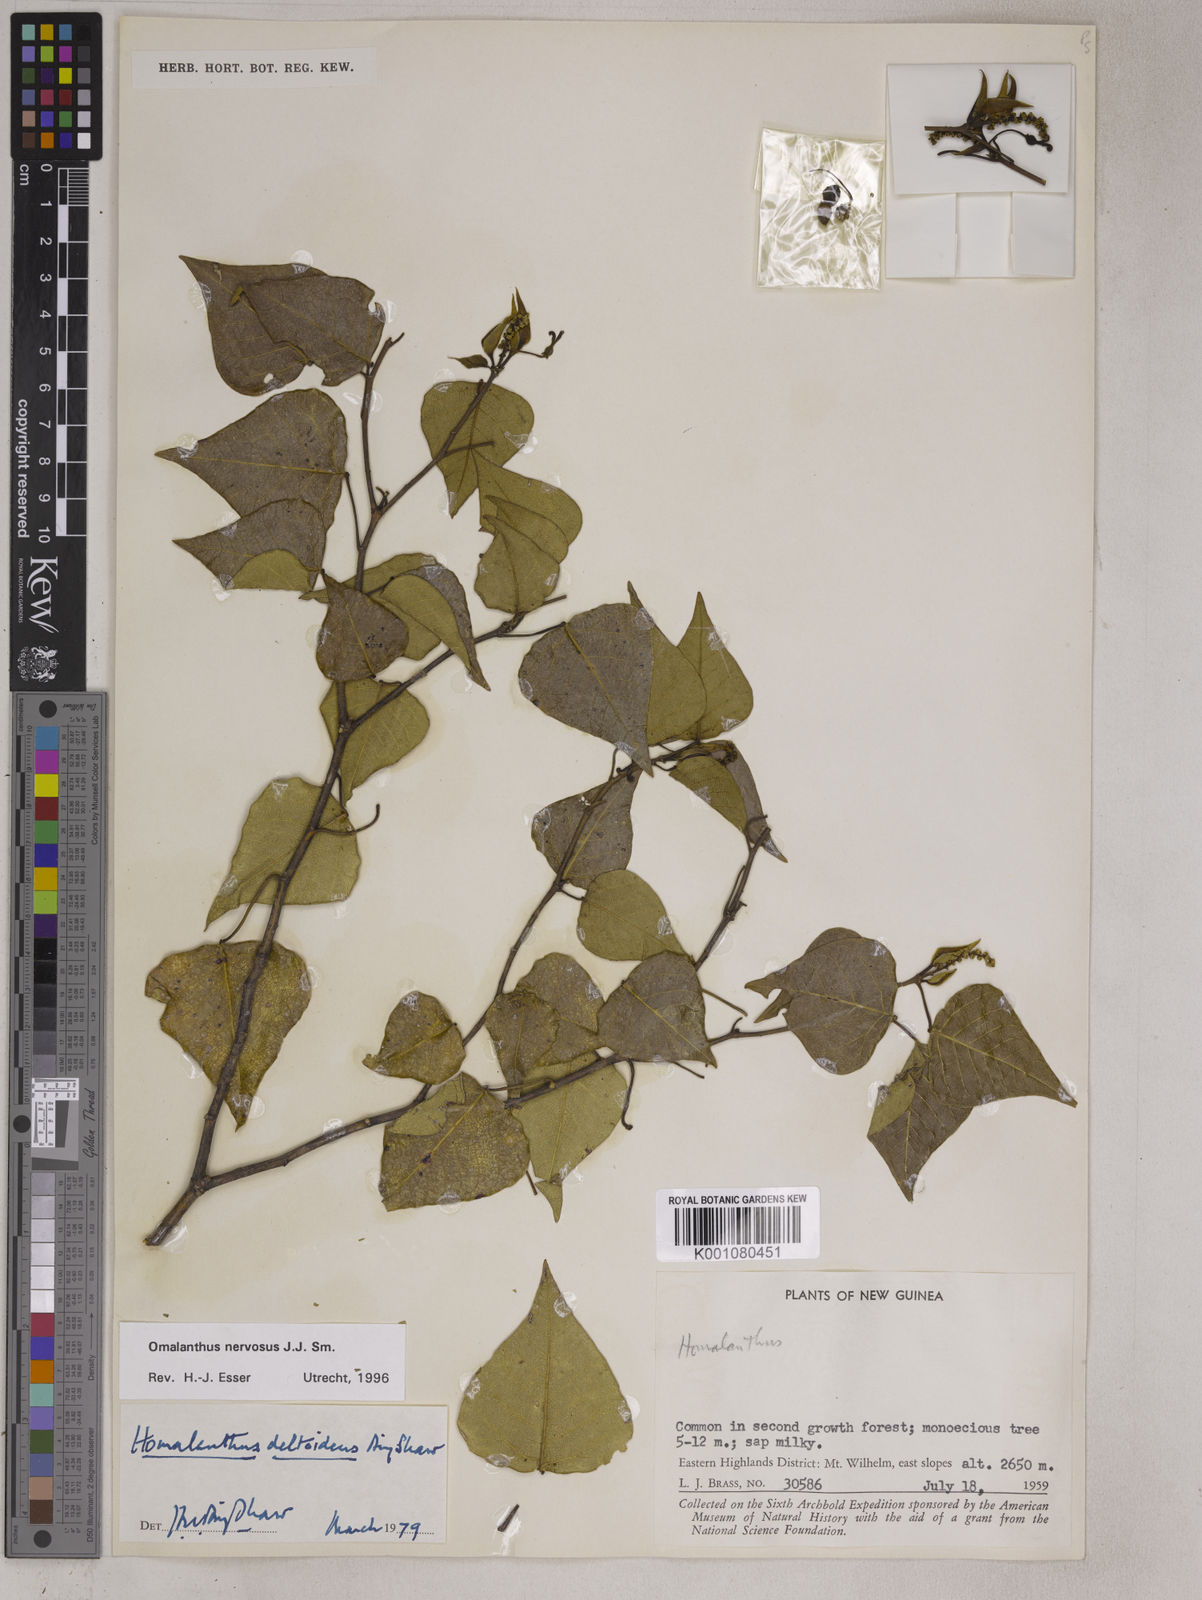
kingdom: Plantae
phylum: Tracheophyta
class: Magnoliopsida
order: Malpighiales
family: Euphorbiaceae
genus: Homalanthus
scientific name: Homalanthus nervosus
